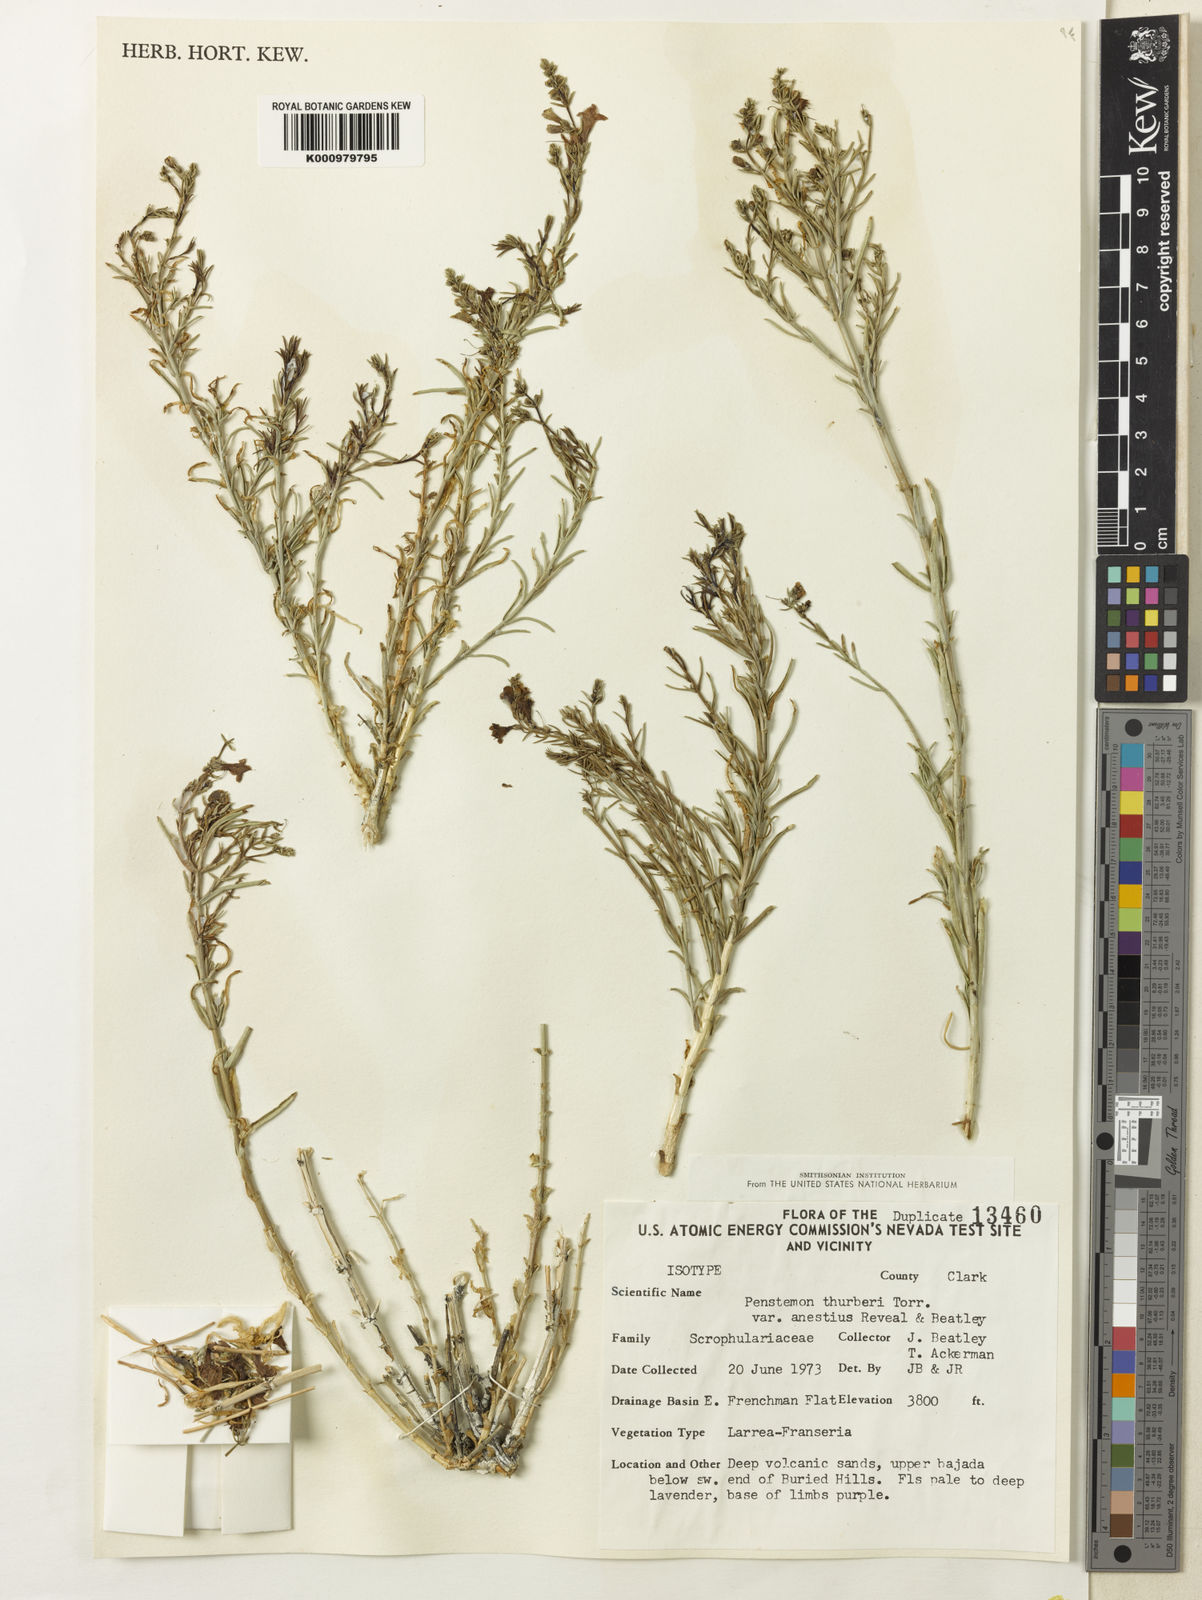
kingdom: Plantae
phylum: Tracheophyta
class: Magnoliopsida
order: Lamiales
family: Plantaginaceae
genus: Penstemon
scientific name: Penstemon thurberi
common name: Thurber's beardtongue
